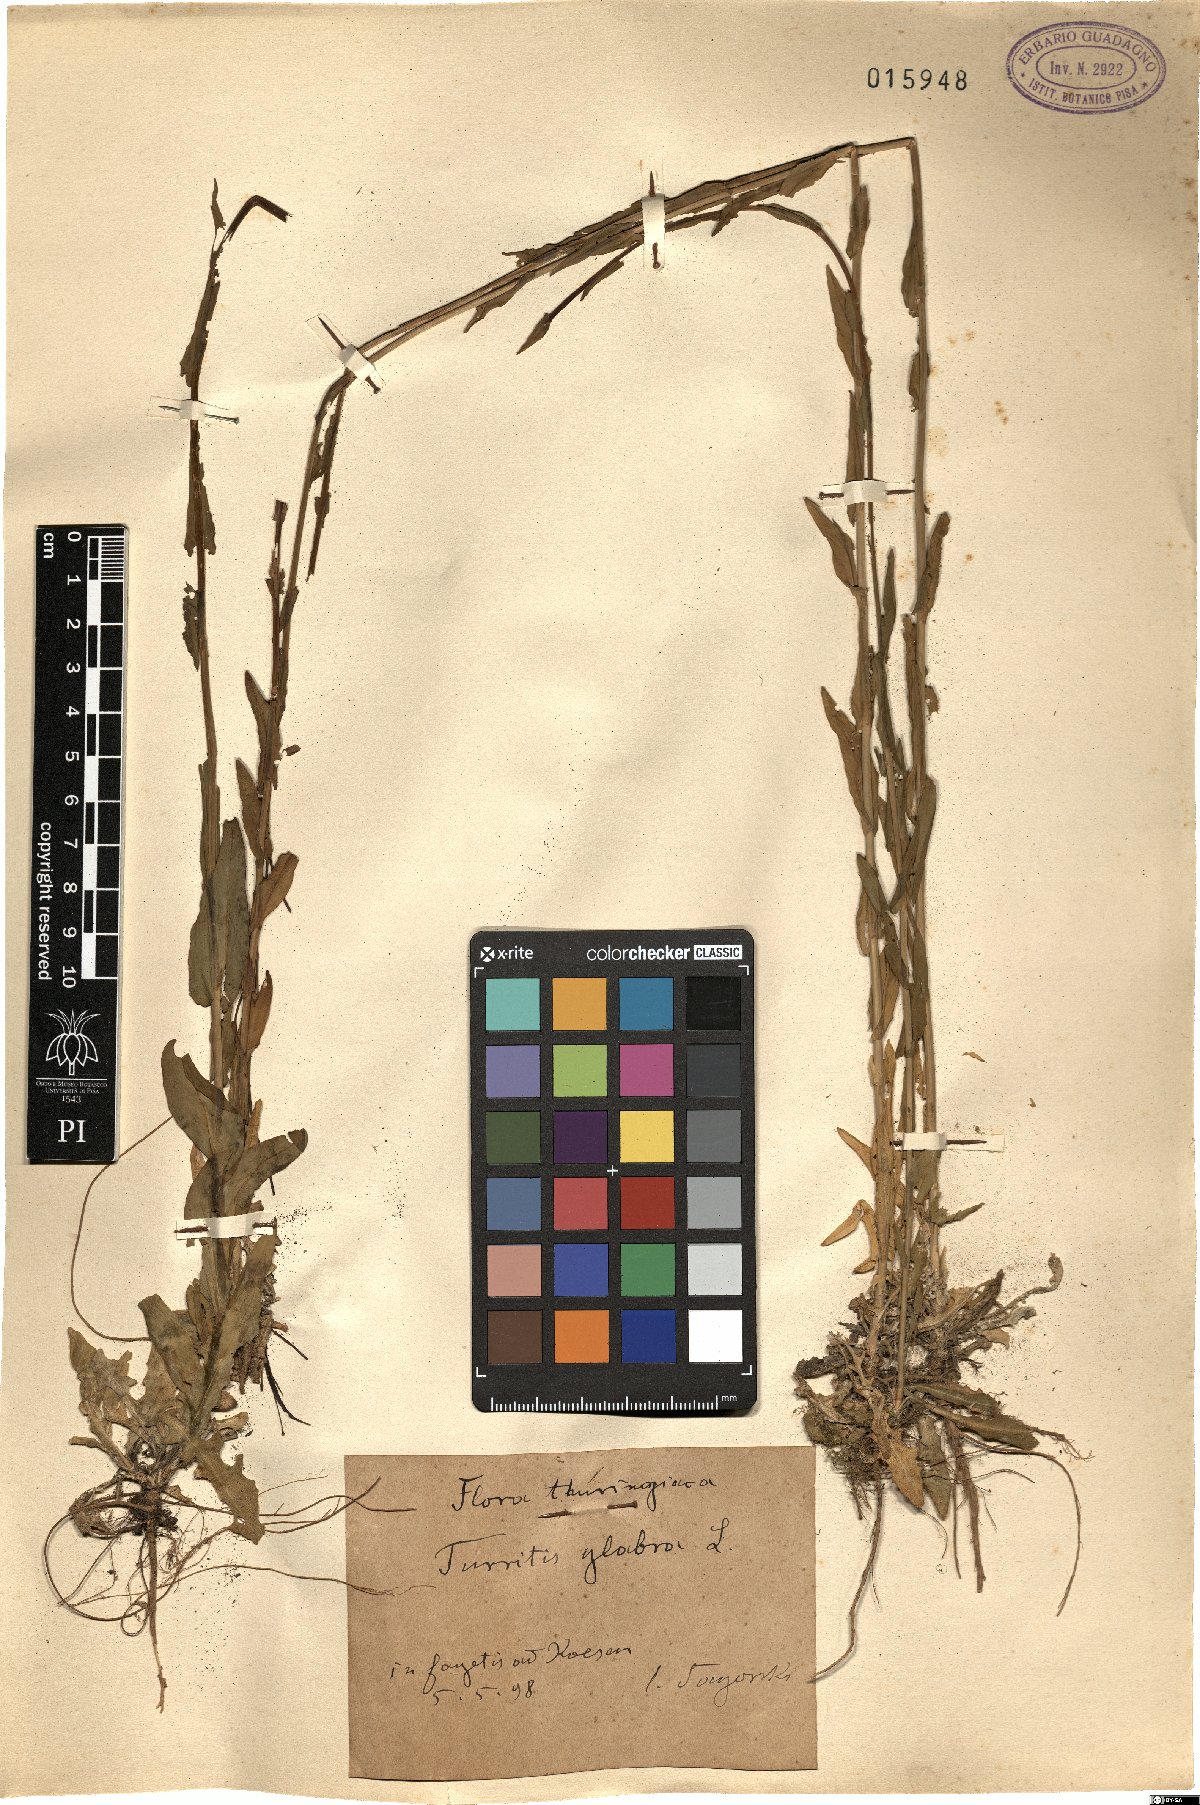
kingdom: Plantae
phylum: Tracheophyta
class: Magnoliopsida
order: Brassicales
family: Brassicaceae
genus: Turritis
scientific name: Turritis glabra
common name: Tower rockcress
